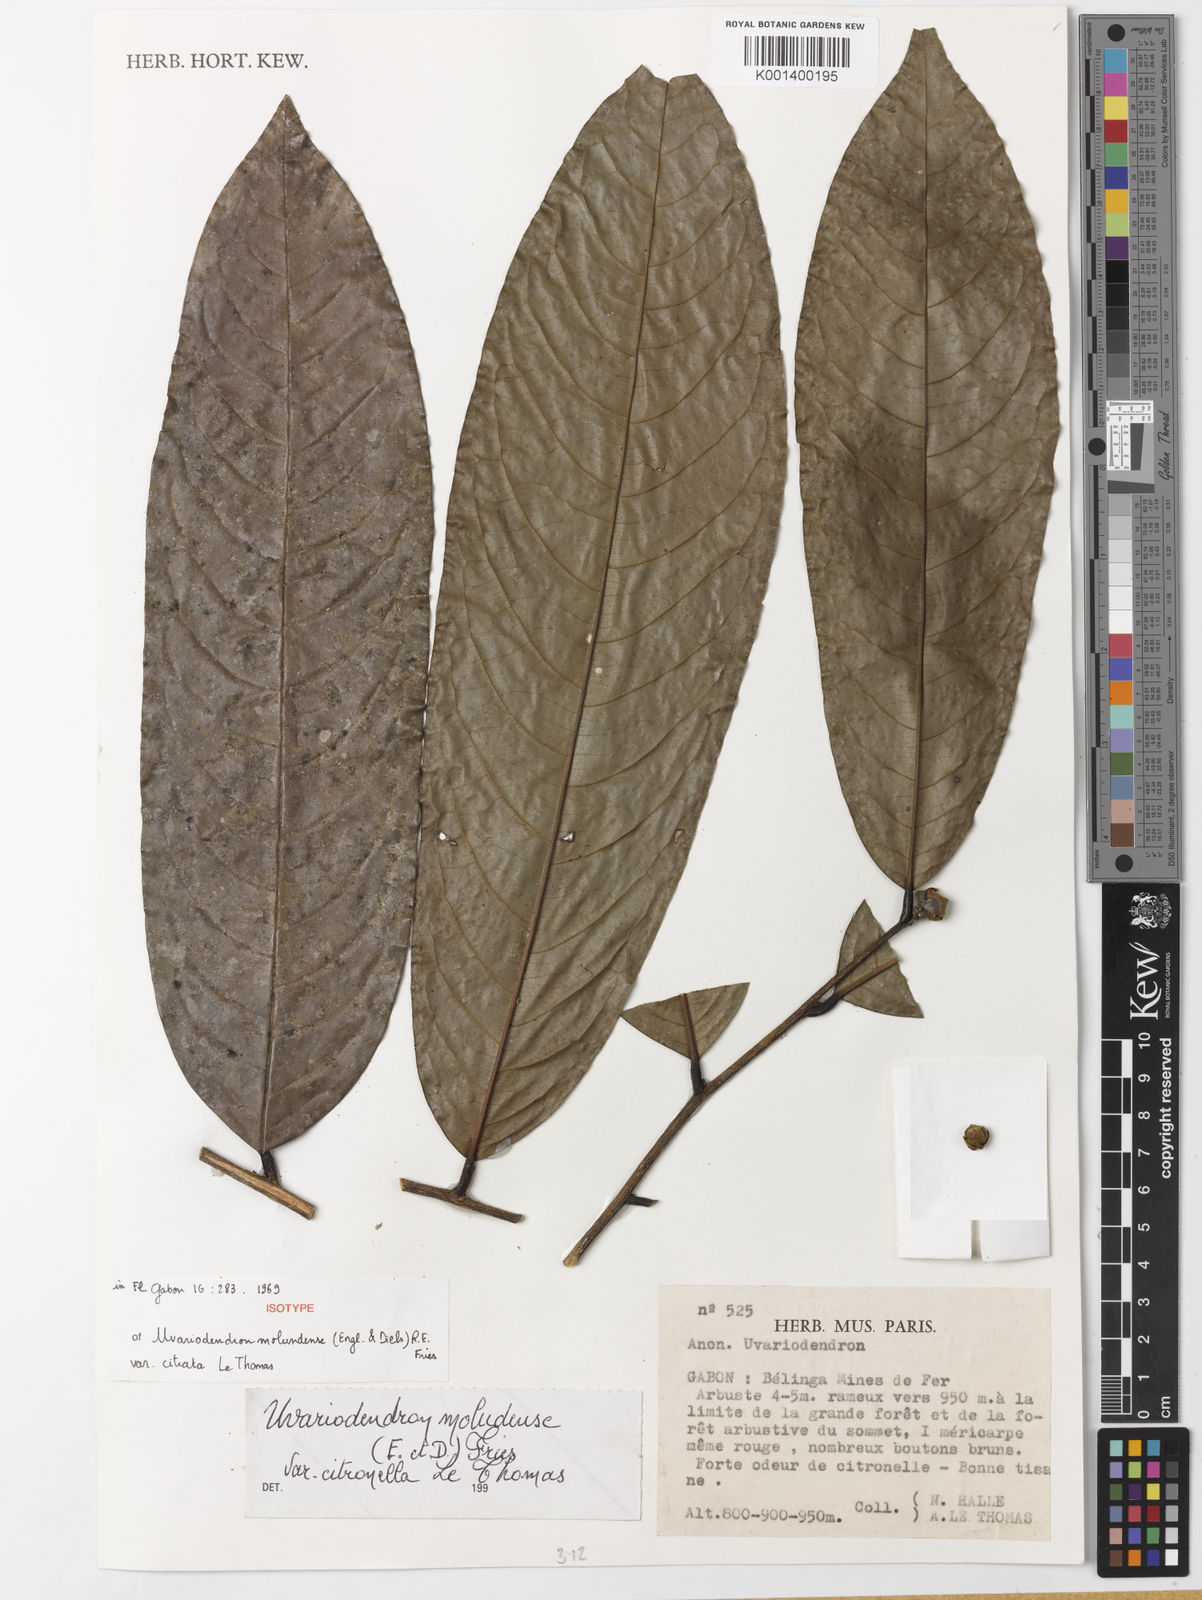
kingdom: Plantae
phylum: Tracheophyta
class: Magnoliopsida
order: Magnoliales
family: Annonaceae
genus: Uvariodendron
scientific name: Uvariodendron molundense
